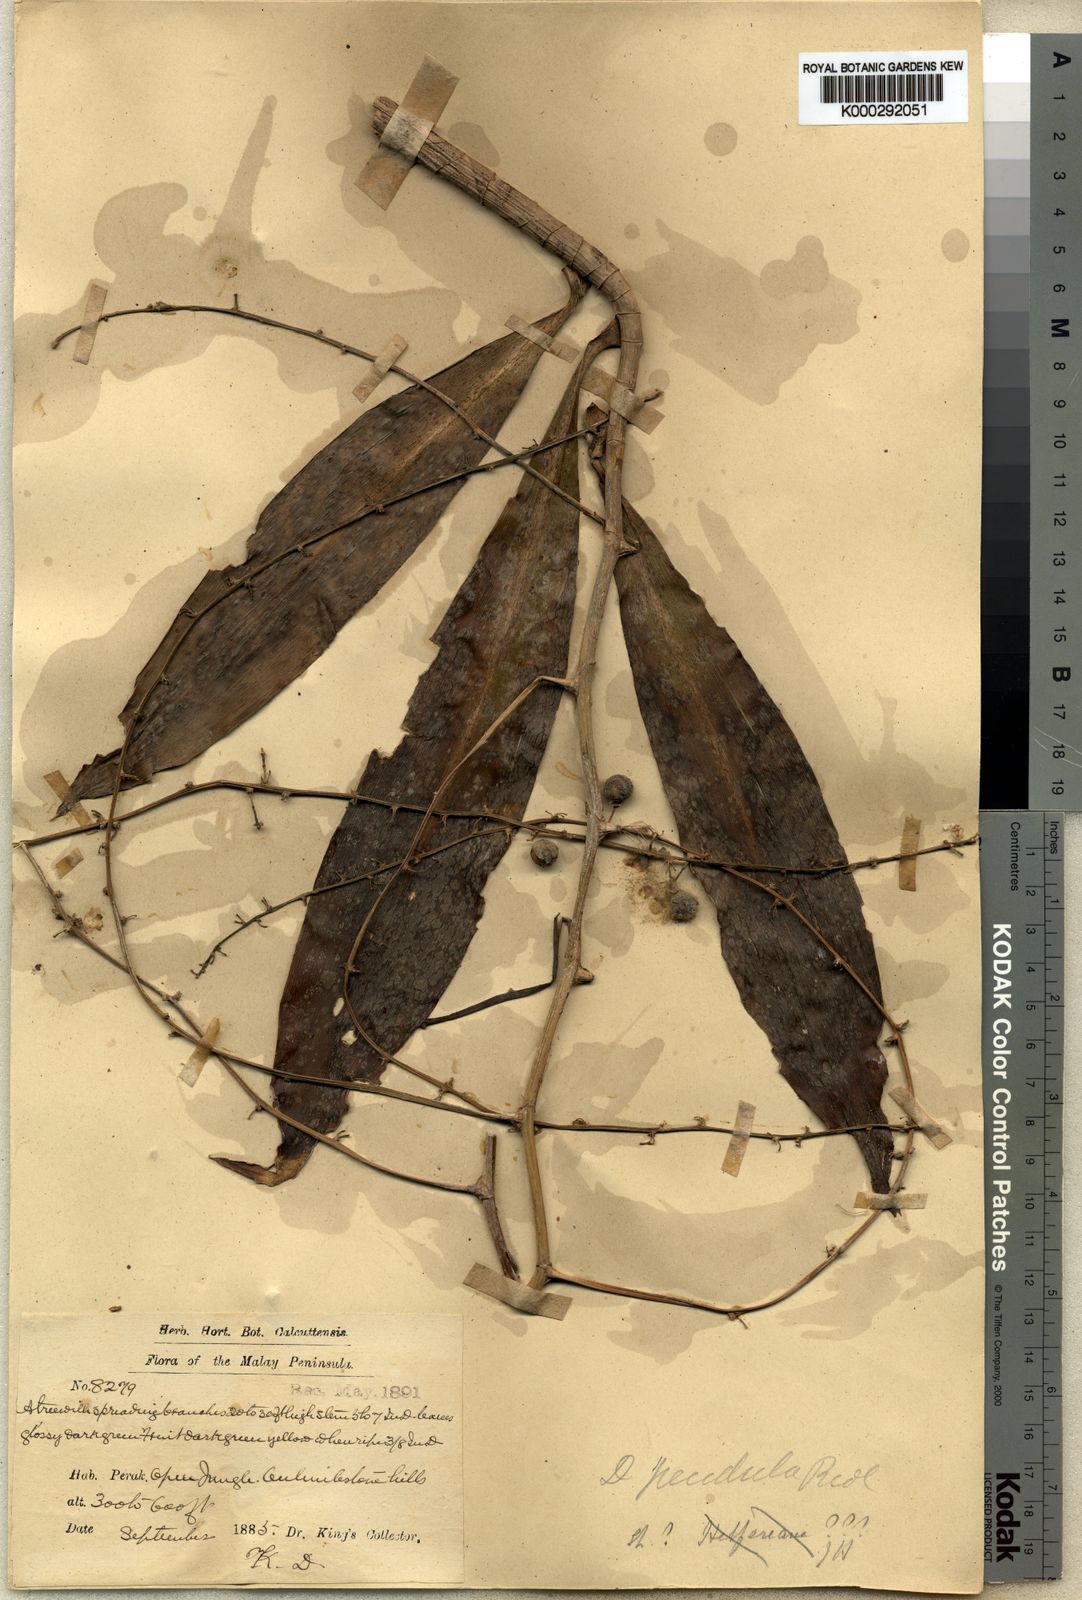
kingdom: Plantae
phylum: Tracheophyta
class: Liliopsida
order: Asparagales
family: Asparagaceae
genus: Dracaena
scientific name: Dracaena pendula
